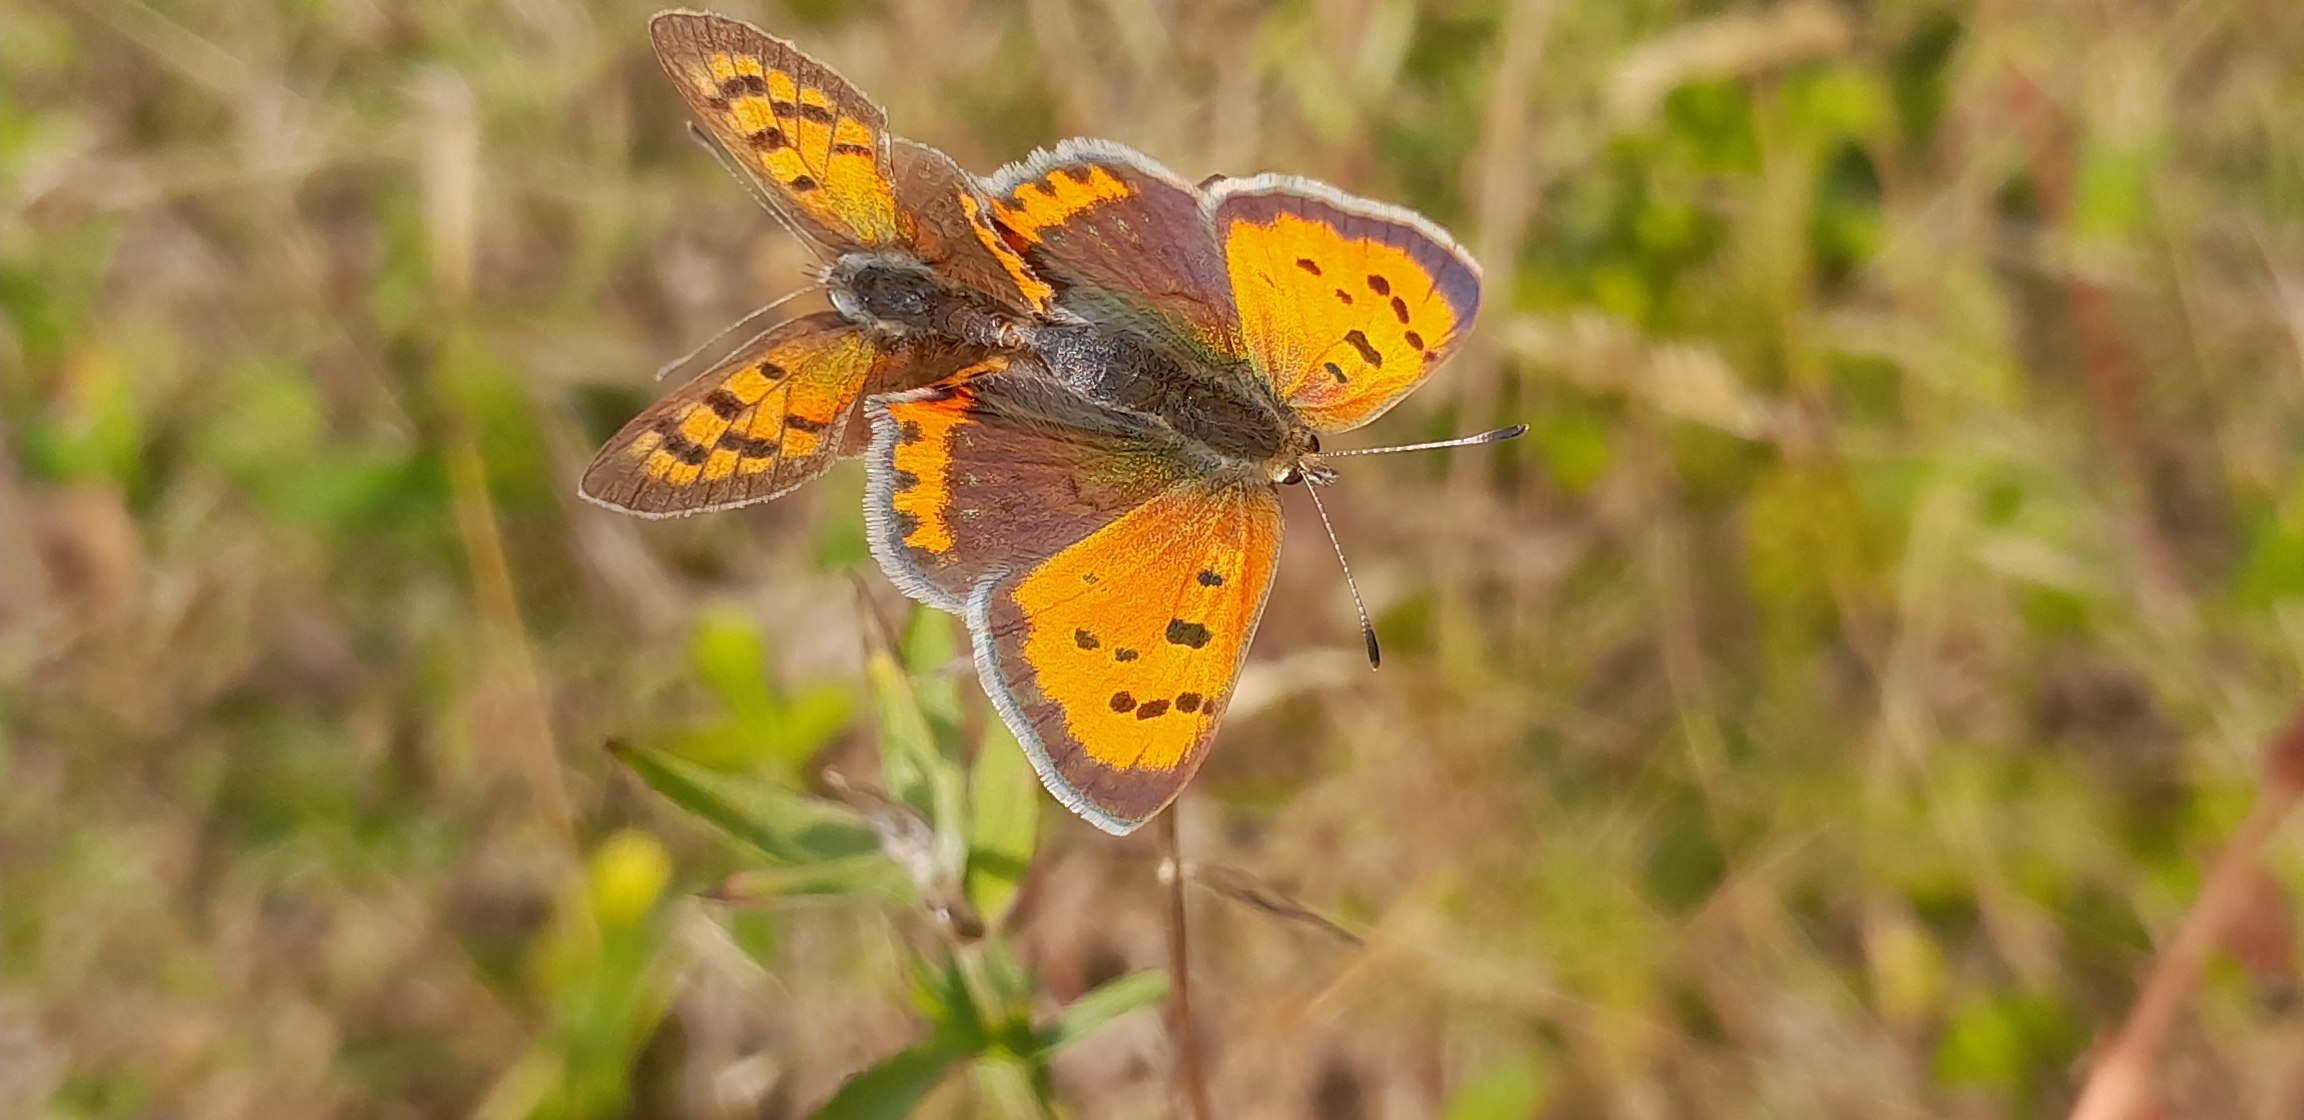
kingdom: Animalia
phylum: Arthropoda
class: Insecta
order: Lepidoptera
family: Lycaenidae
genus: Lycaena
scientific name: Lycaena phlaeas
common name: Lille ildfugl
